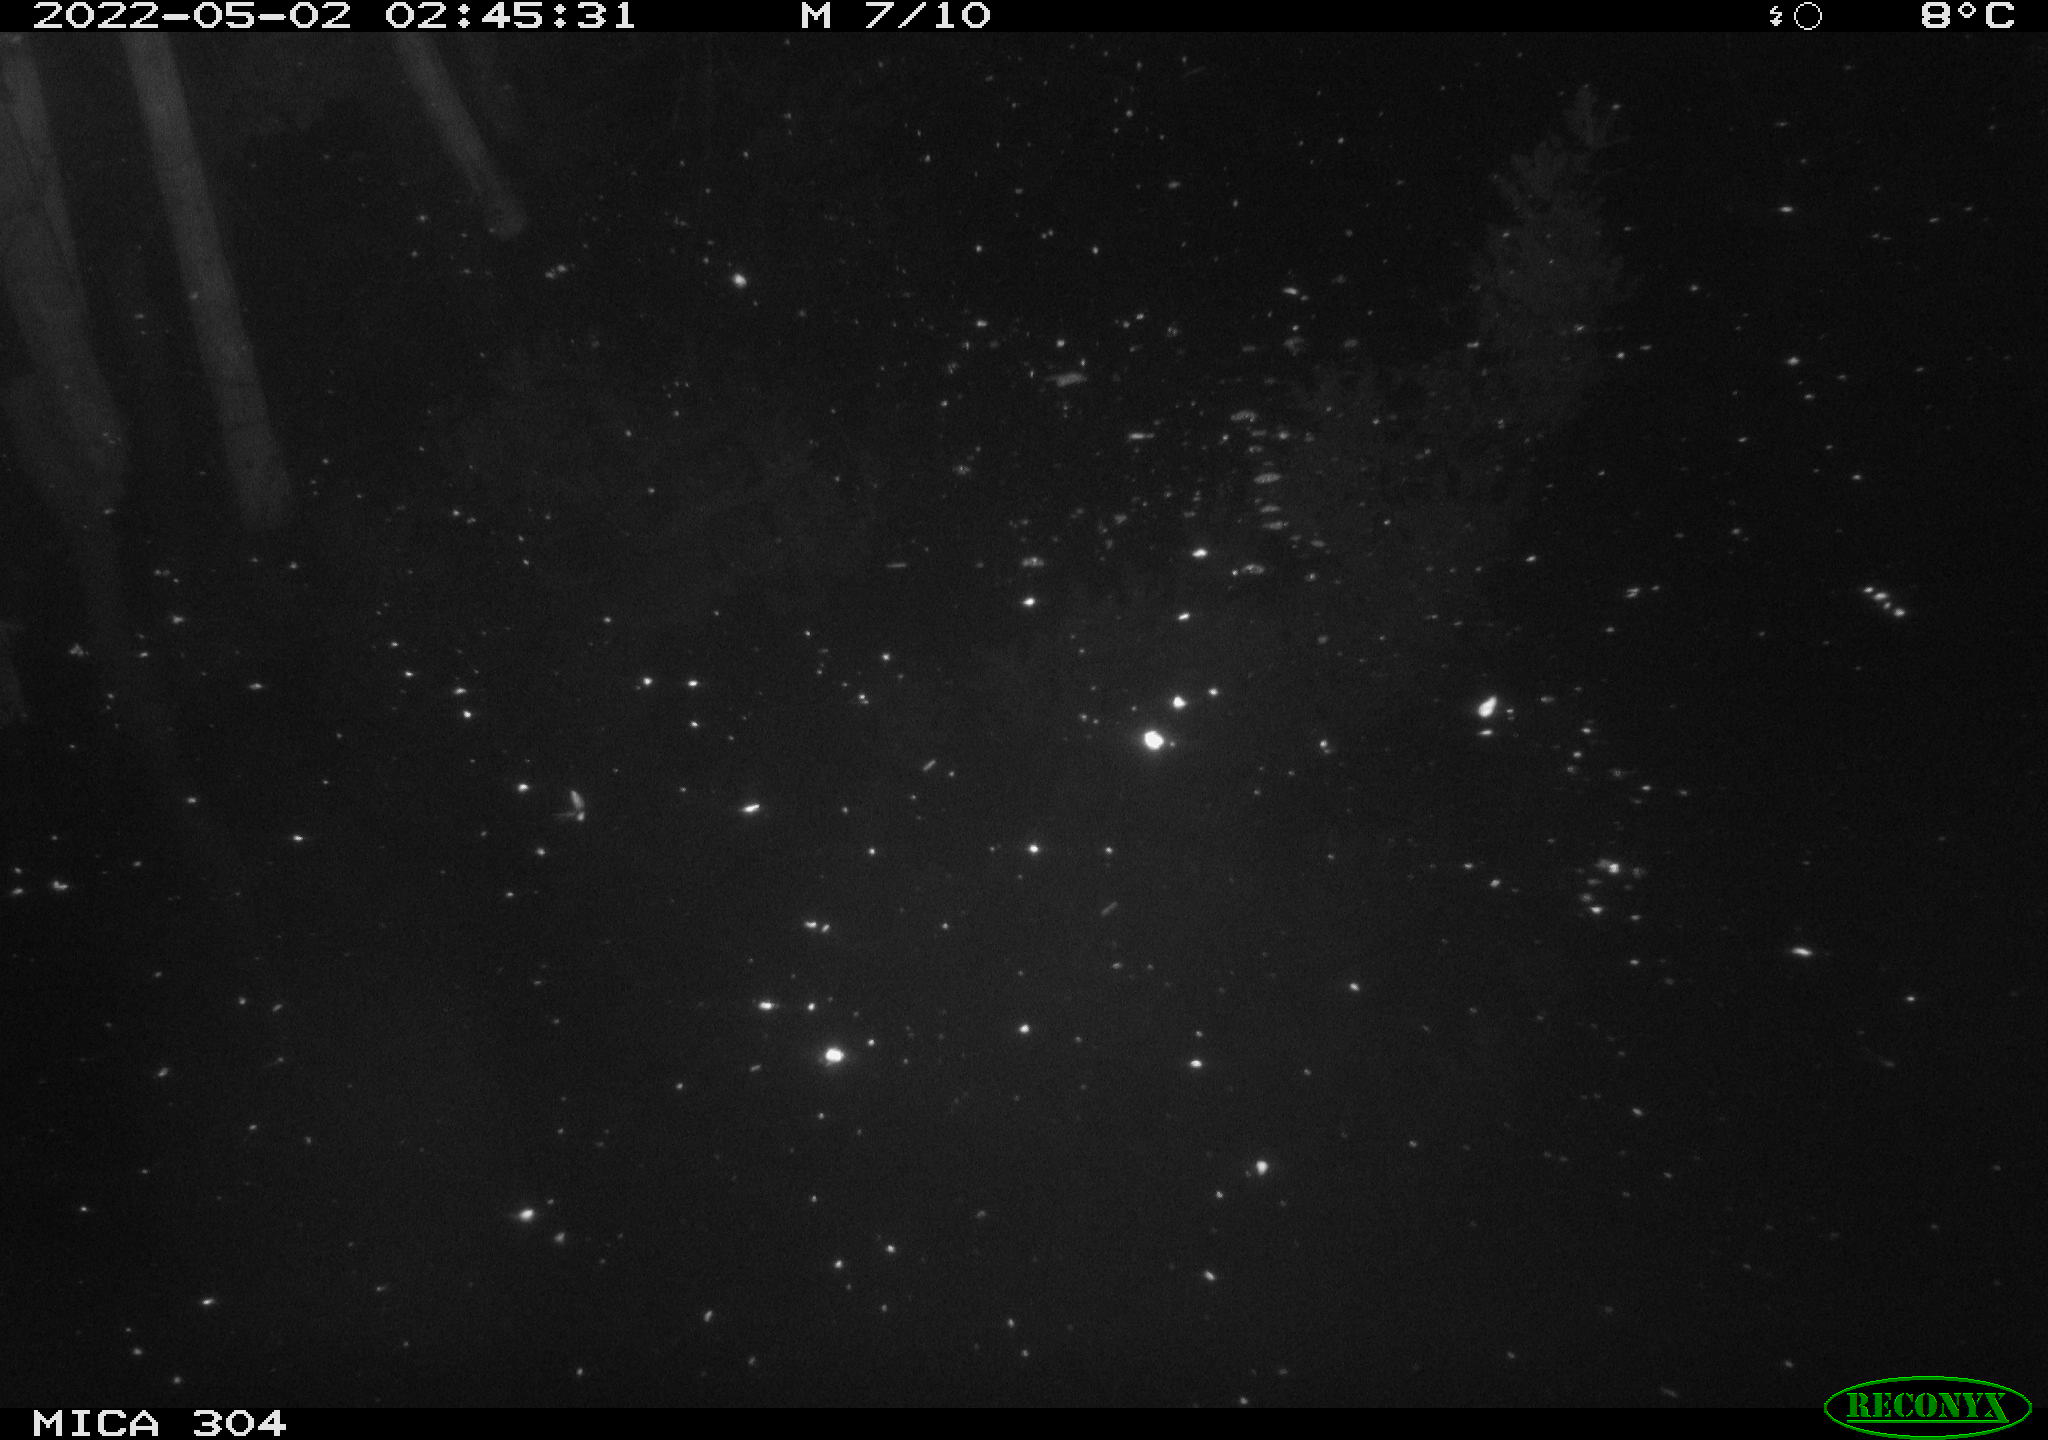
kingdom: Animalia
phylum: Chordata
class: Aves
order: Anseriformes
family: Anatidae
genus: Anas
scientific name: Anas platyrhynchos
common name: Mallard
